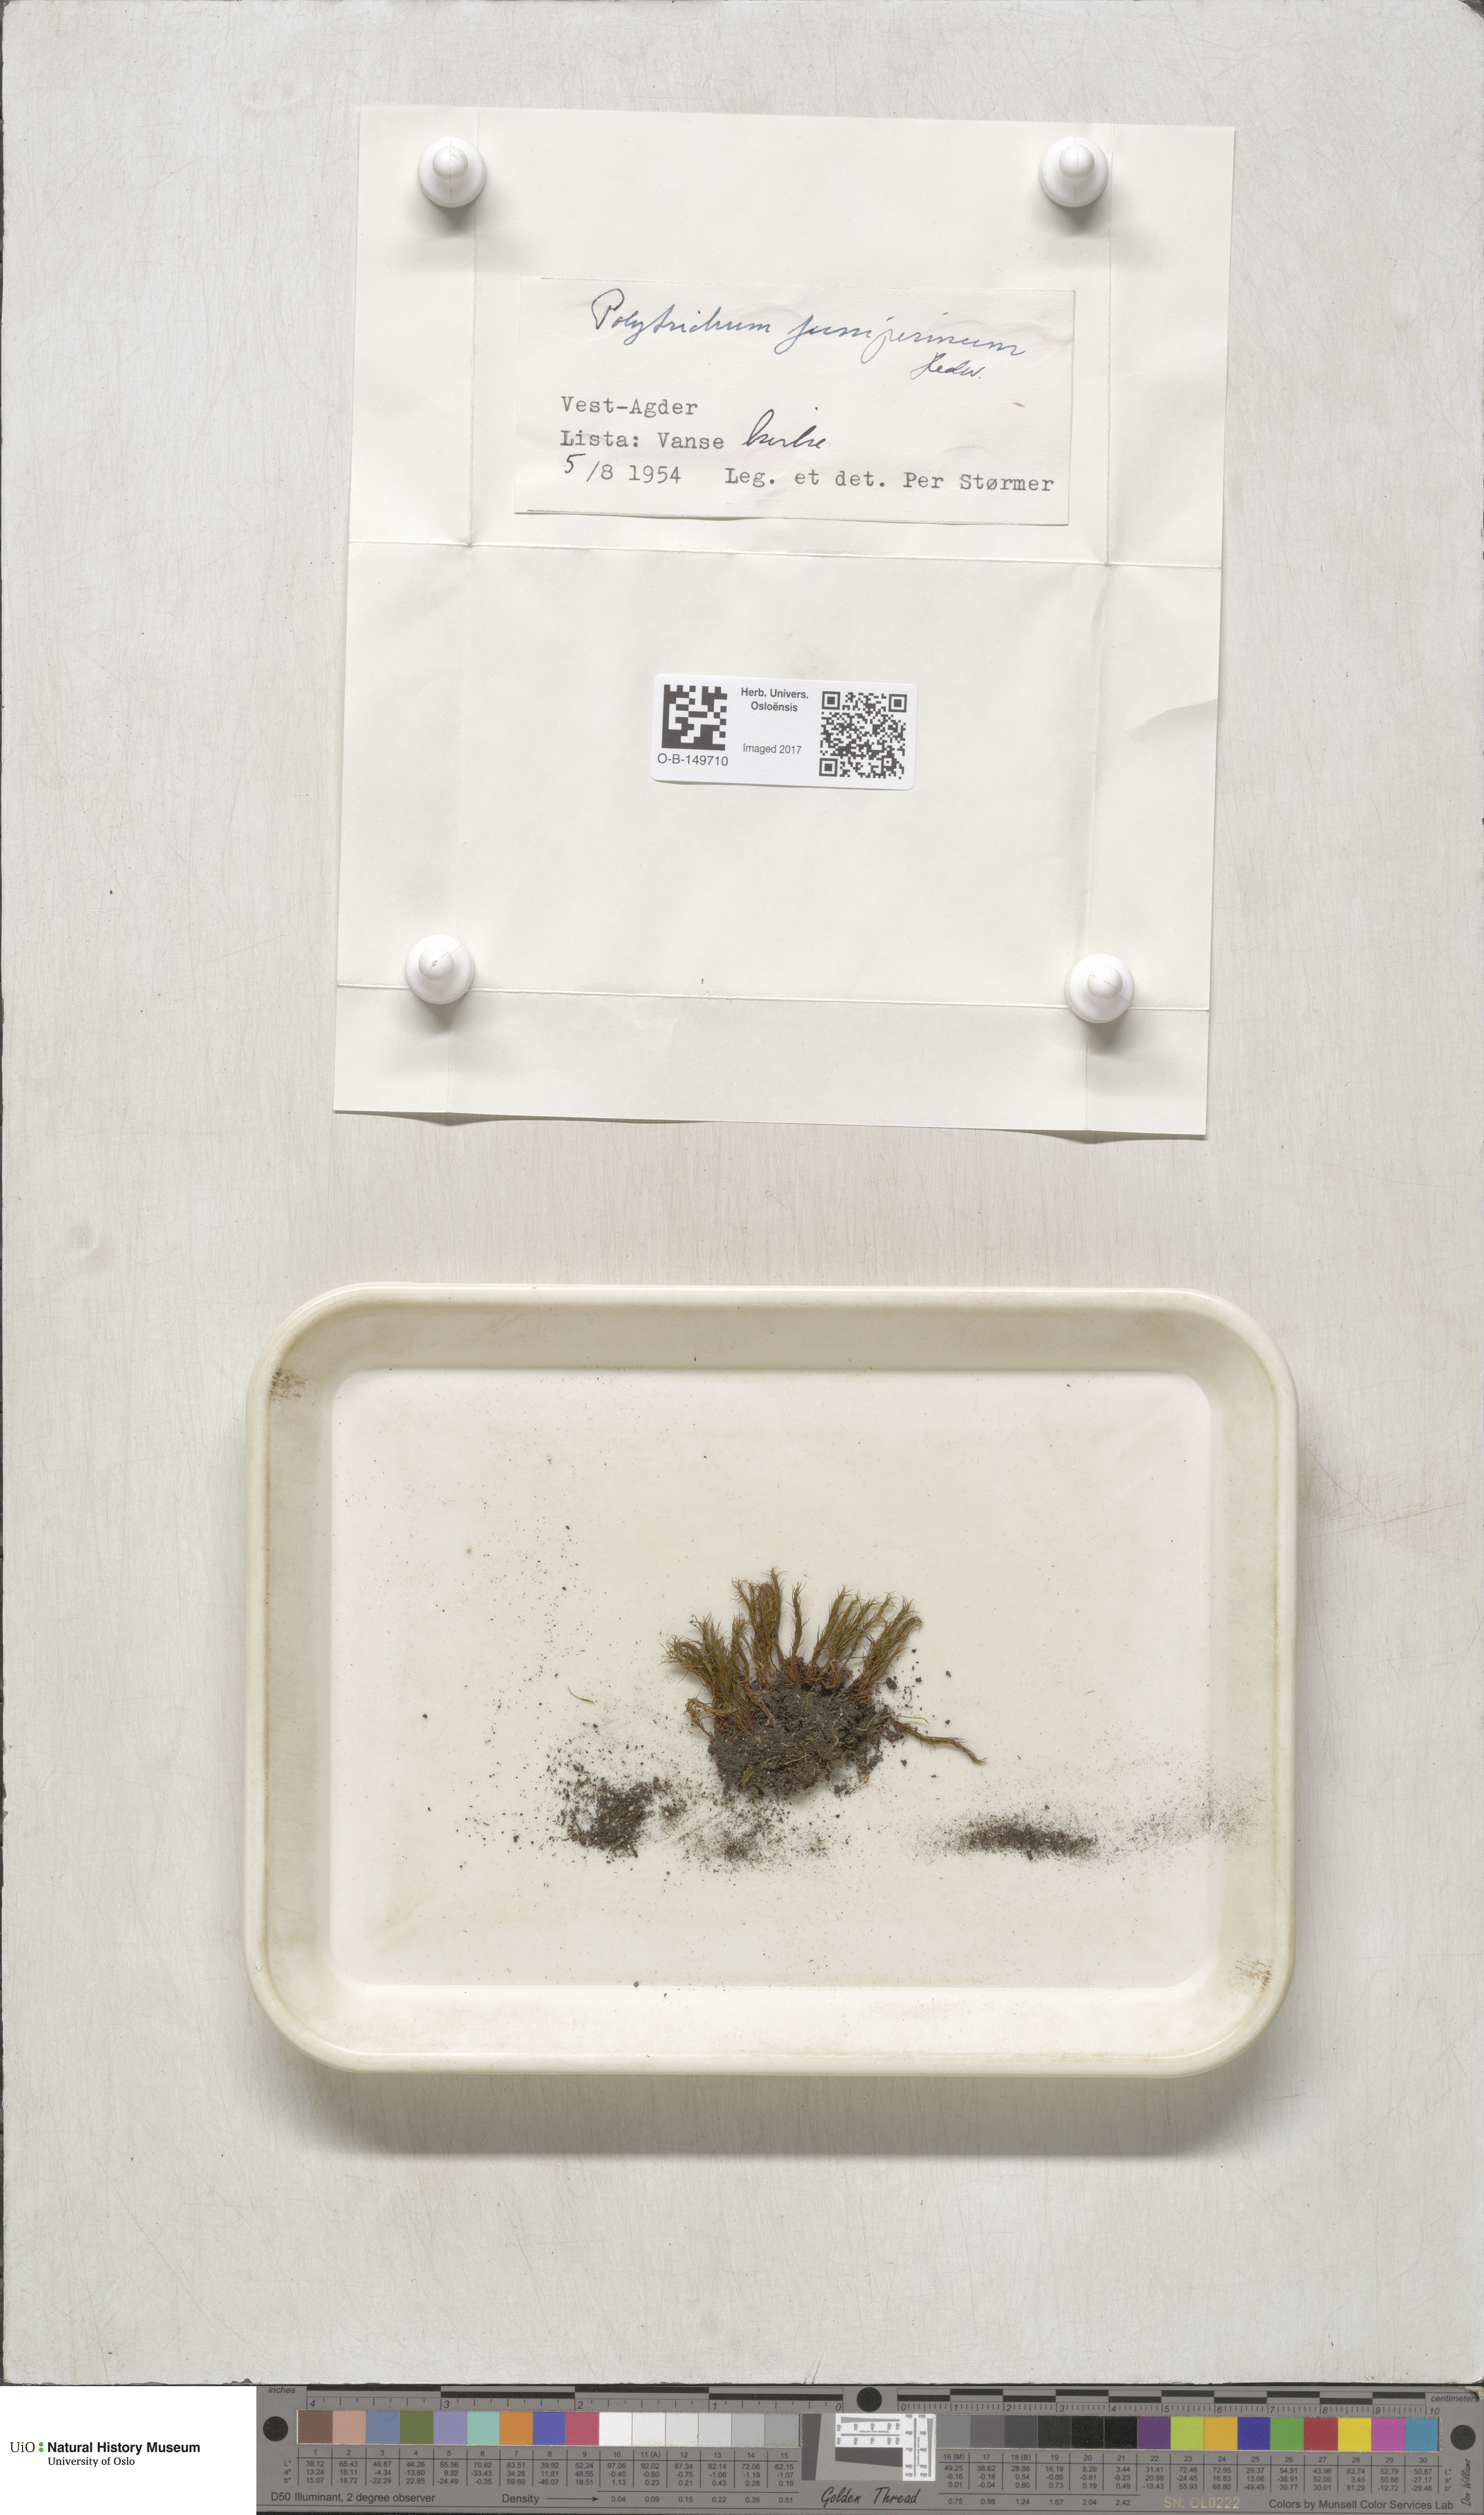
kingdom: Plantae
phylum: Bryophyta
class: Polytrichopsida
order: Polytrichales
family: Polytrichaceae
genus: Polytrichum
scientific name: Polytrichum juniperinum
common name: Juniper haircap moss
